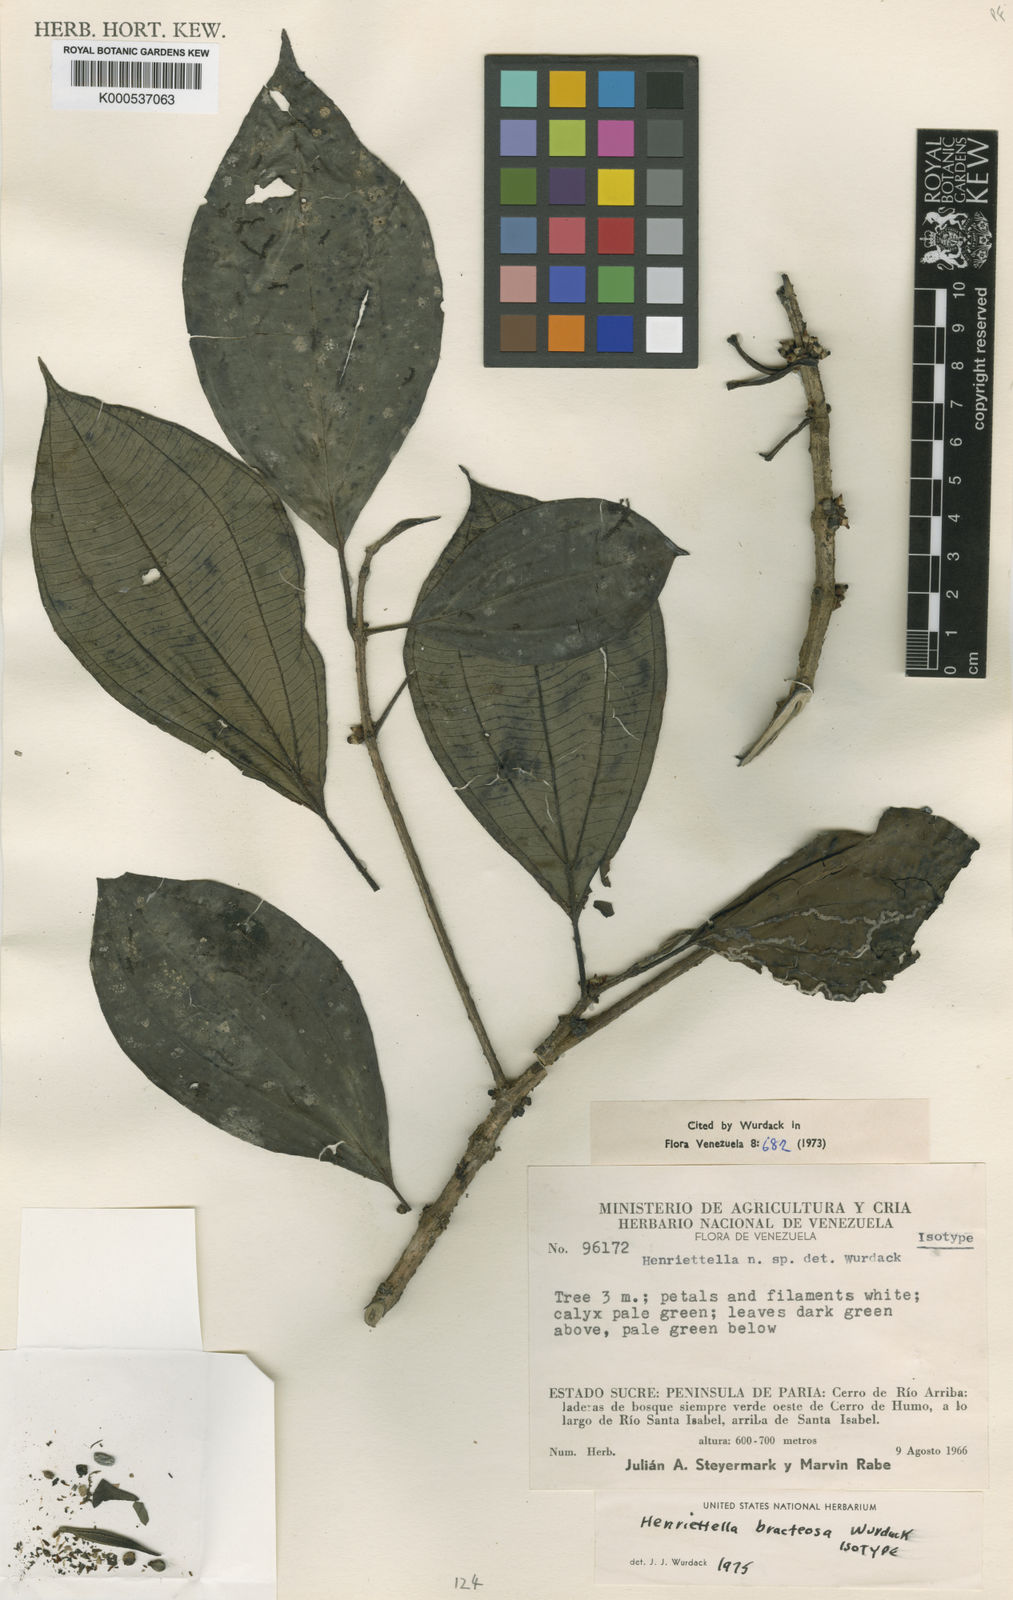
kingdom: Plantae
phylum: Tracheophyta
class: Magnoliopsida
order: Myrtales
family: Melastomataceae
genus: Henriettea
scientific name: Henriettea bracteosa
